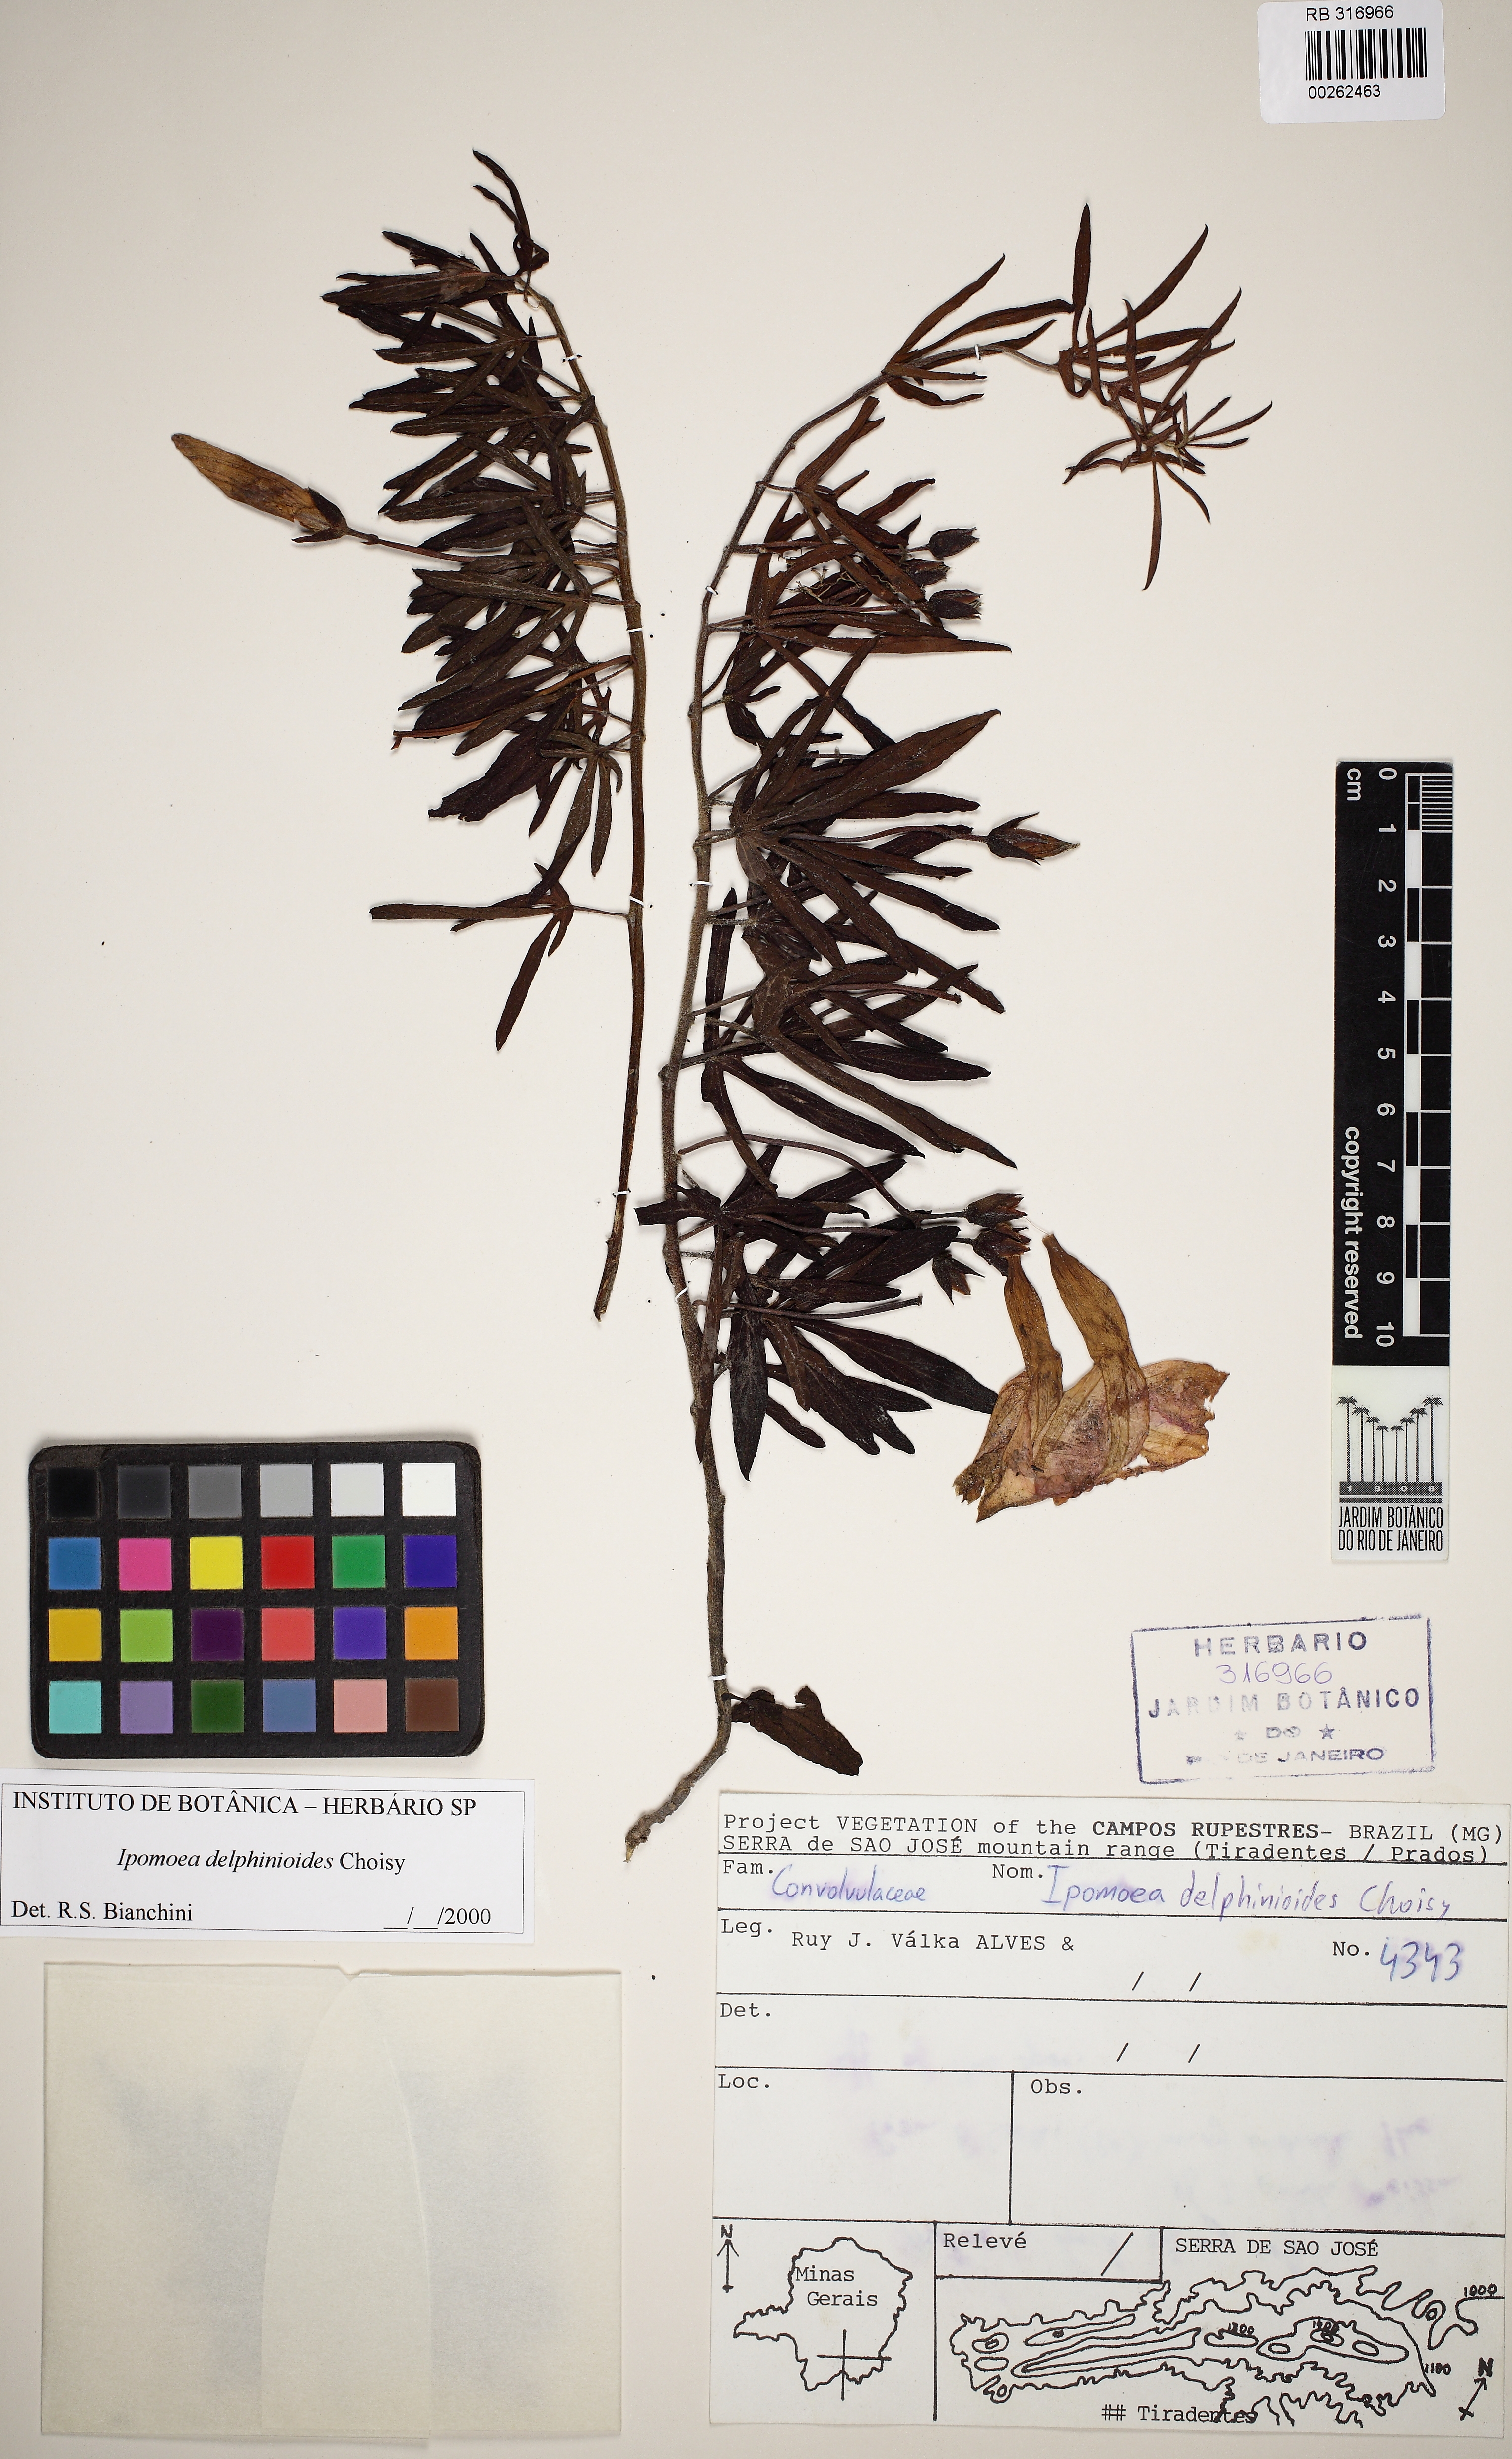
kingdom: Plantae
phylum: Tracheophyta
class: Magnoliopsida
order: Solanales
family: Convolvulaceae
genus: Ipomoea
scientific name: Ipomoea delphinioides
